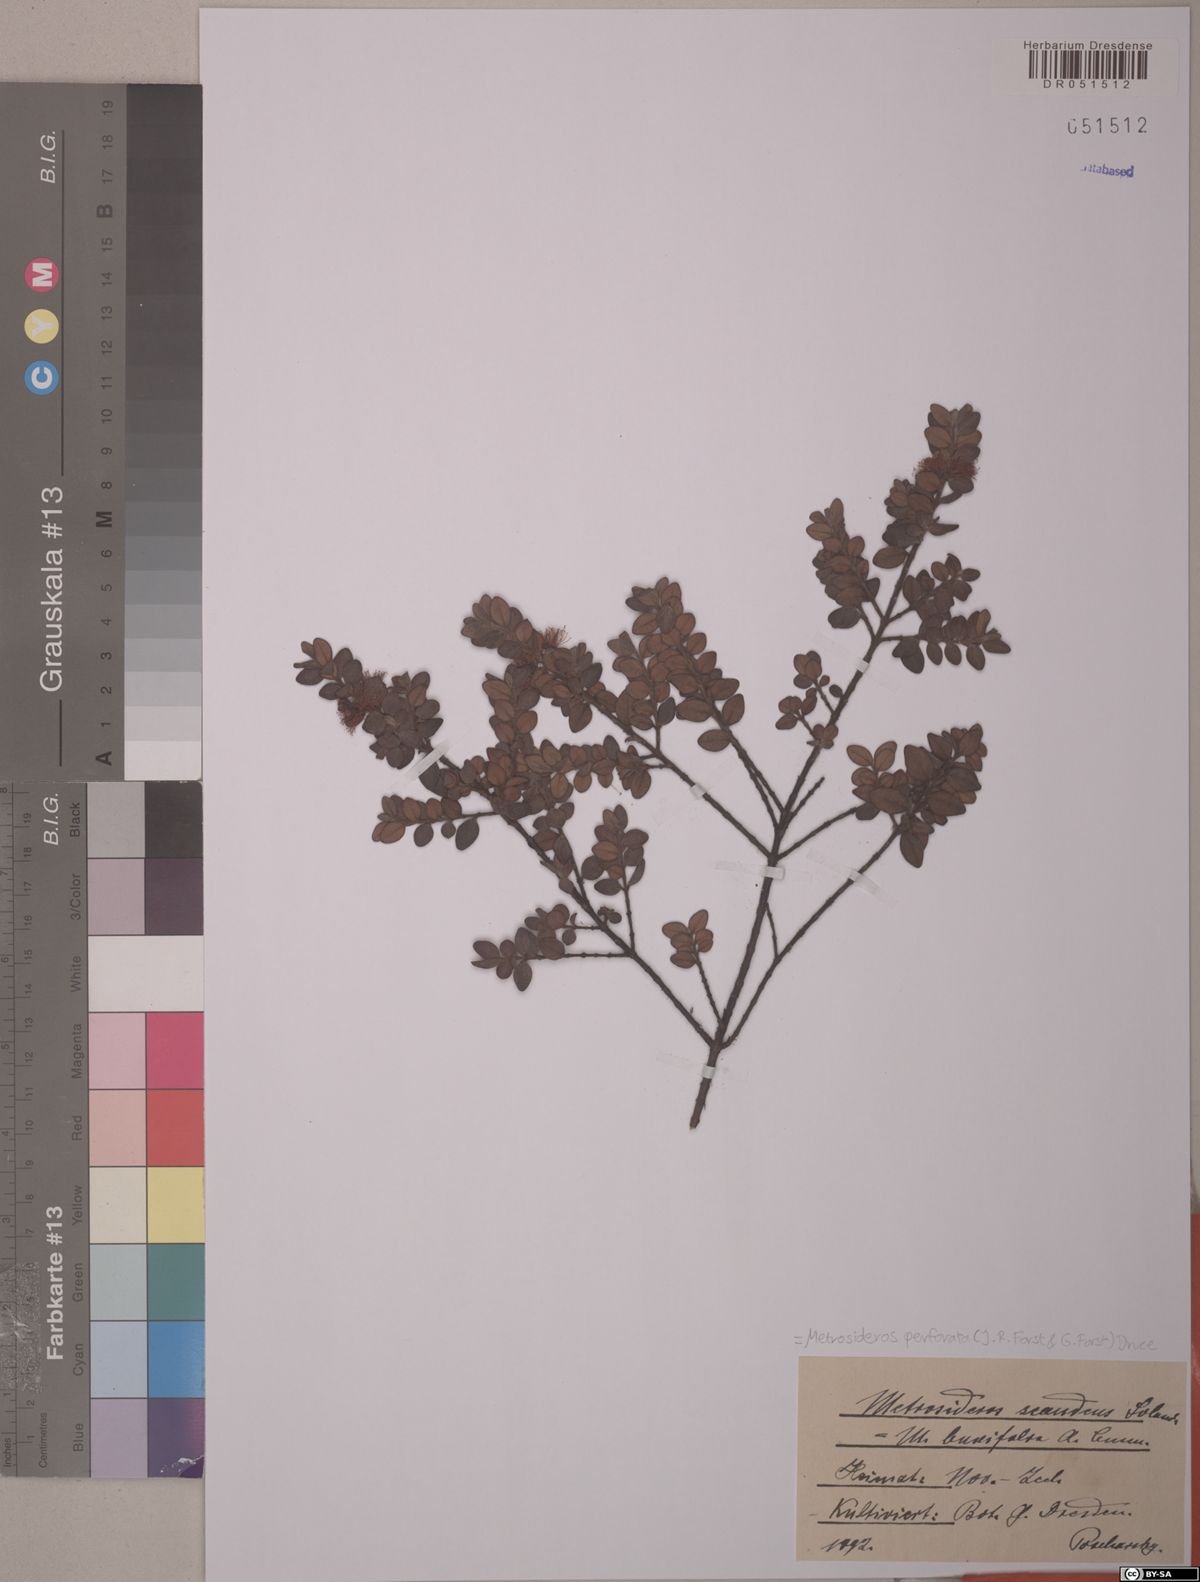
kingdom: Plantae
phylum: Tracheophyta
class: Magnoliopsida
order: Myrtales
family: Myrtaceae
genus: Metrosideros
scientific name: Metrosideros perforata
